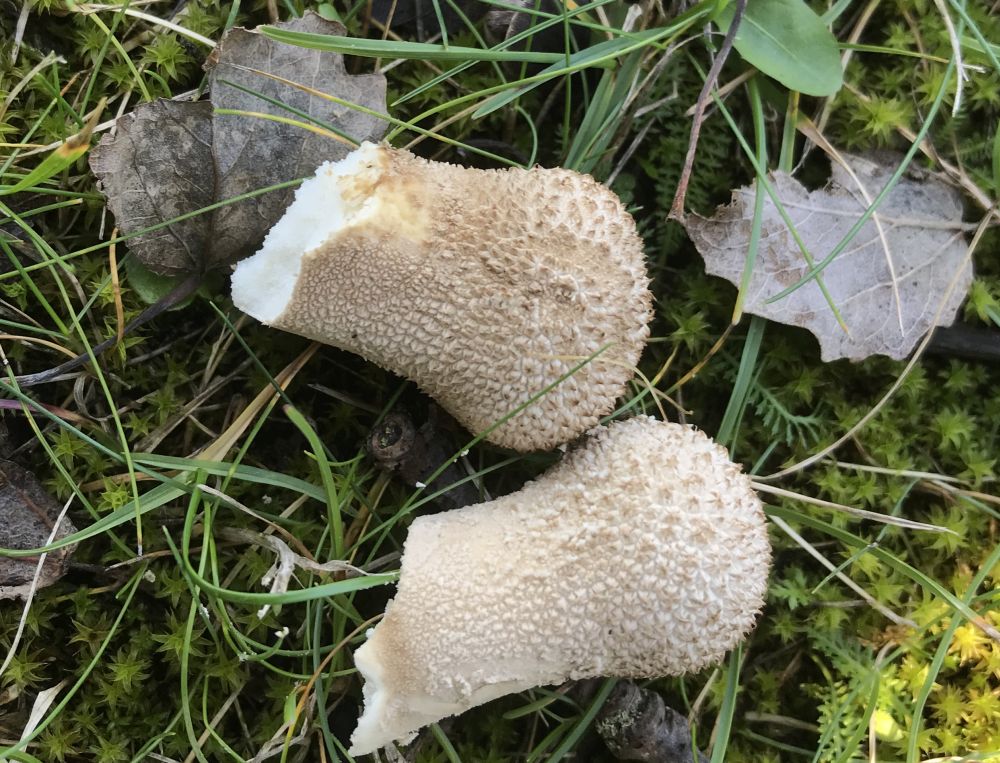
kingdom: Fungi
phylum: Basidiomycota
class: Agaricomycetes
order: Agaricales
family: Lycoperdaceae
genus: Lycoperdon
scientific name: Lycoperdon excipuliforme
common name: højstokket støvbold
